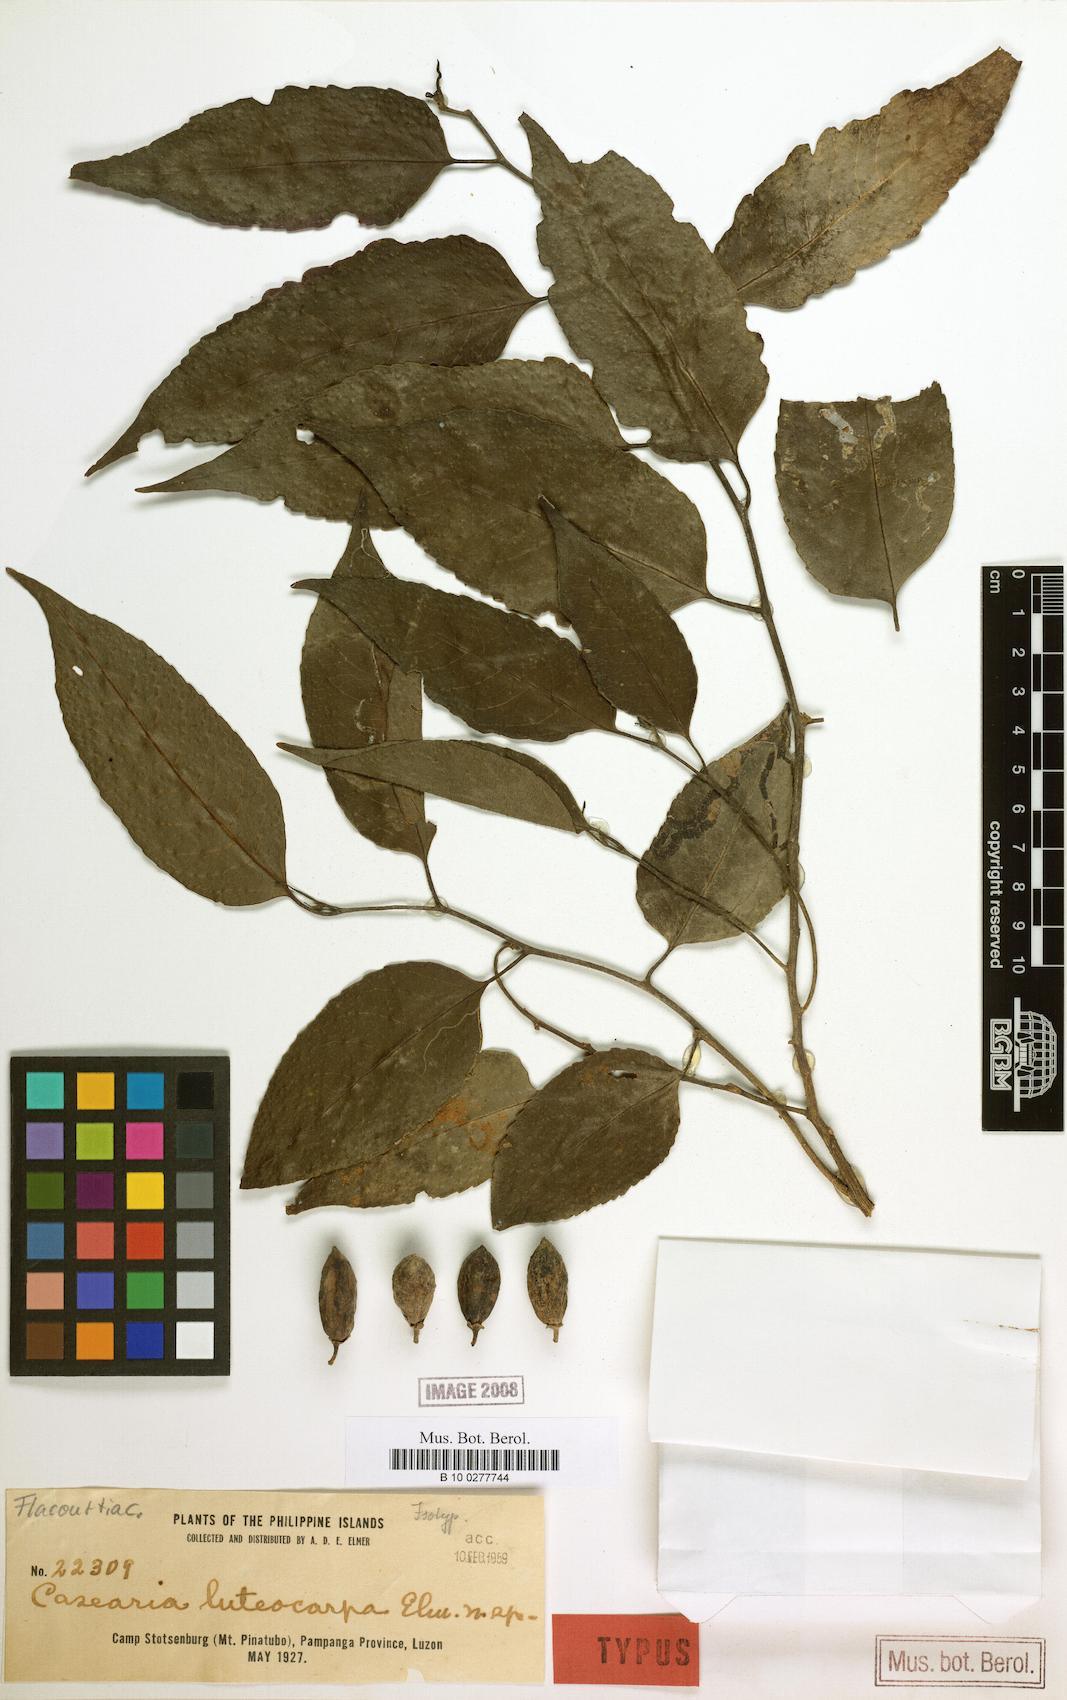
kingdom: Plantae
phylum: Tracheophyta
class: Magnoliopsida
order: Malpighiales
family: Salicaceae
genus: Casearia
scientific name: Casearia grewiifolia
